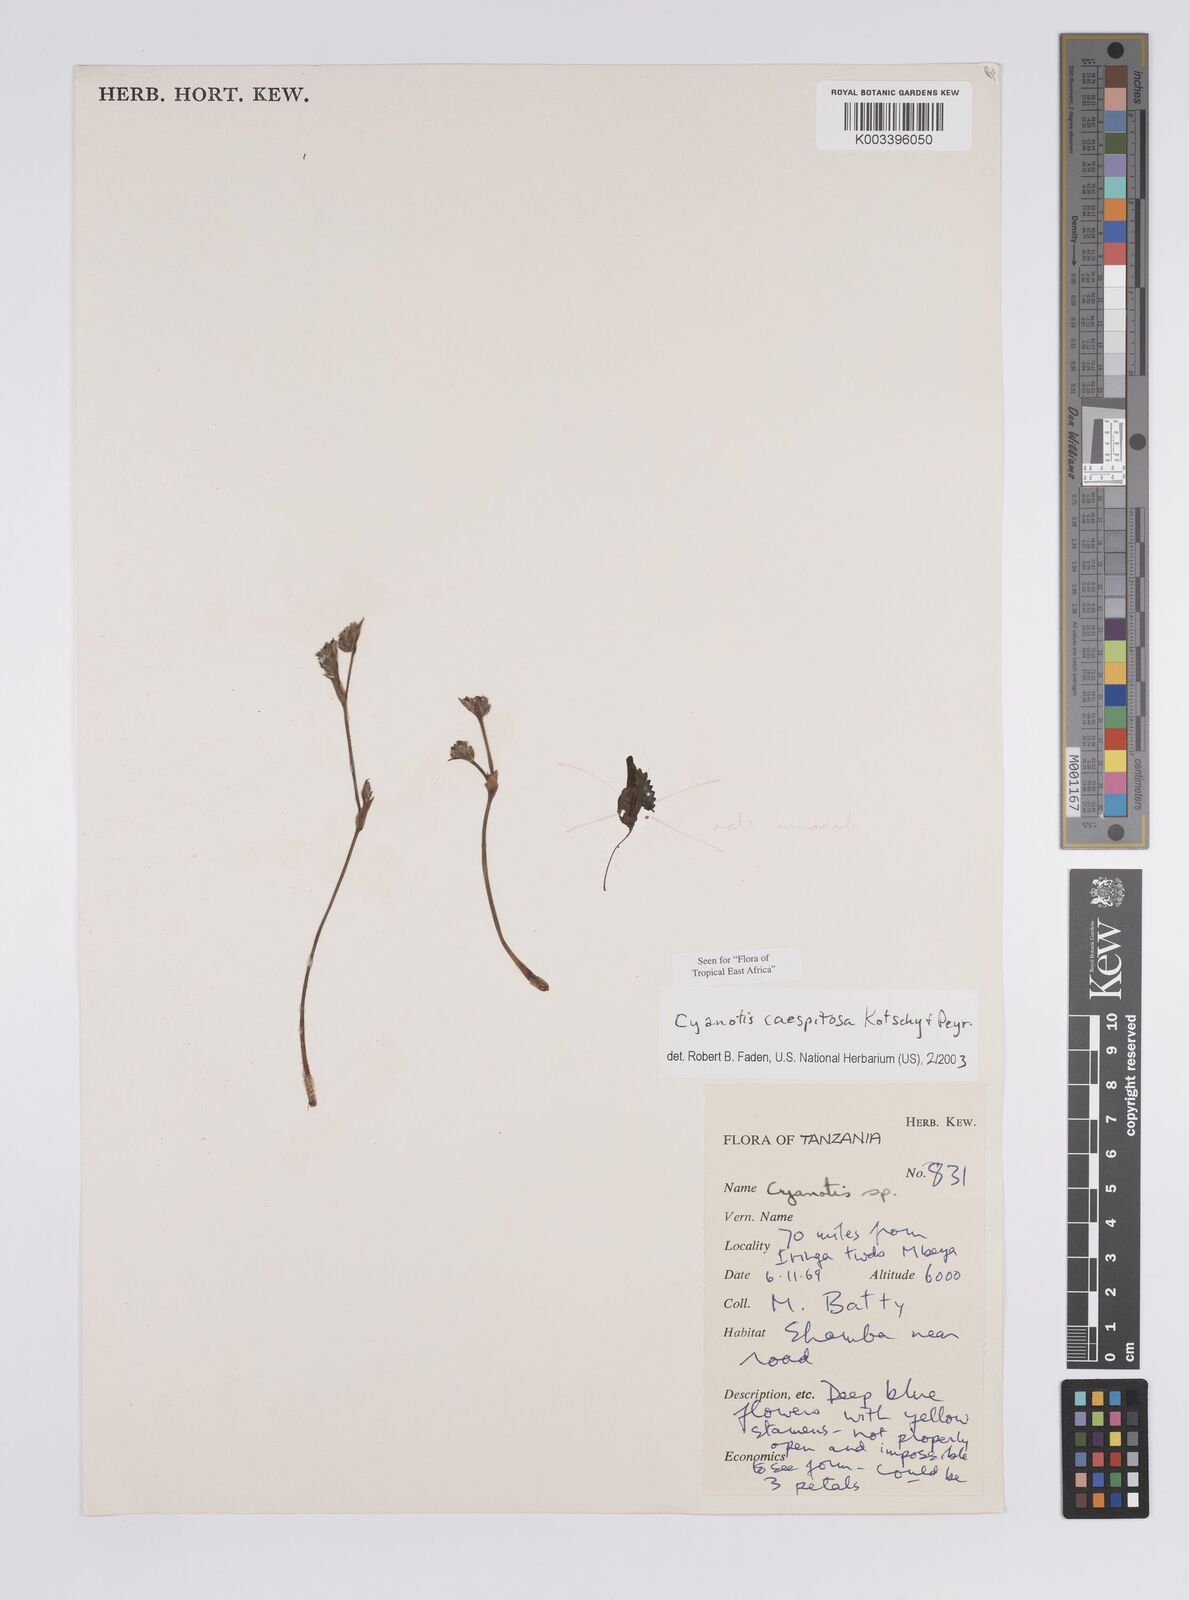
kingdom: Plantae
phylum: Tracheophyta
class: Liliopsida
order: Commelinales
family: Commelinaceae
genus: Cyanotis
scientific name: Cyanotis caespitosa
